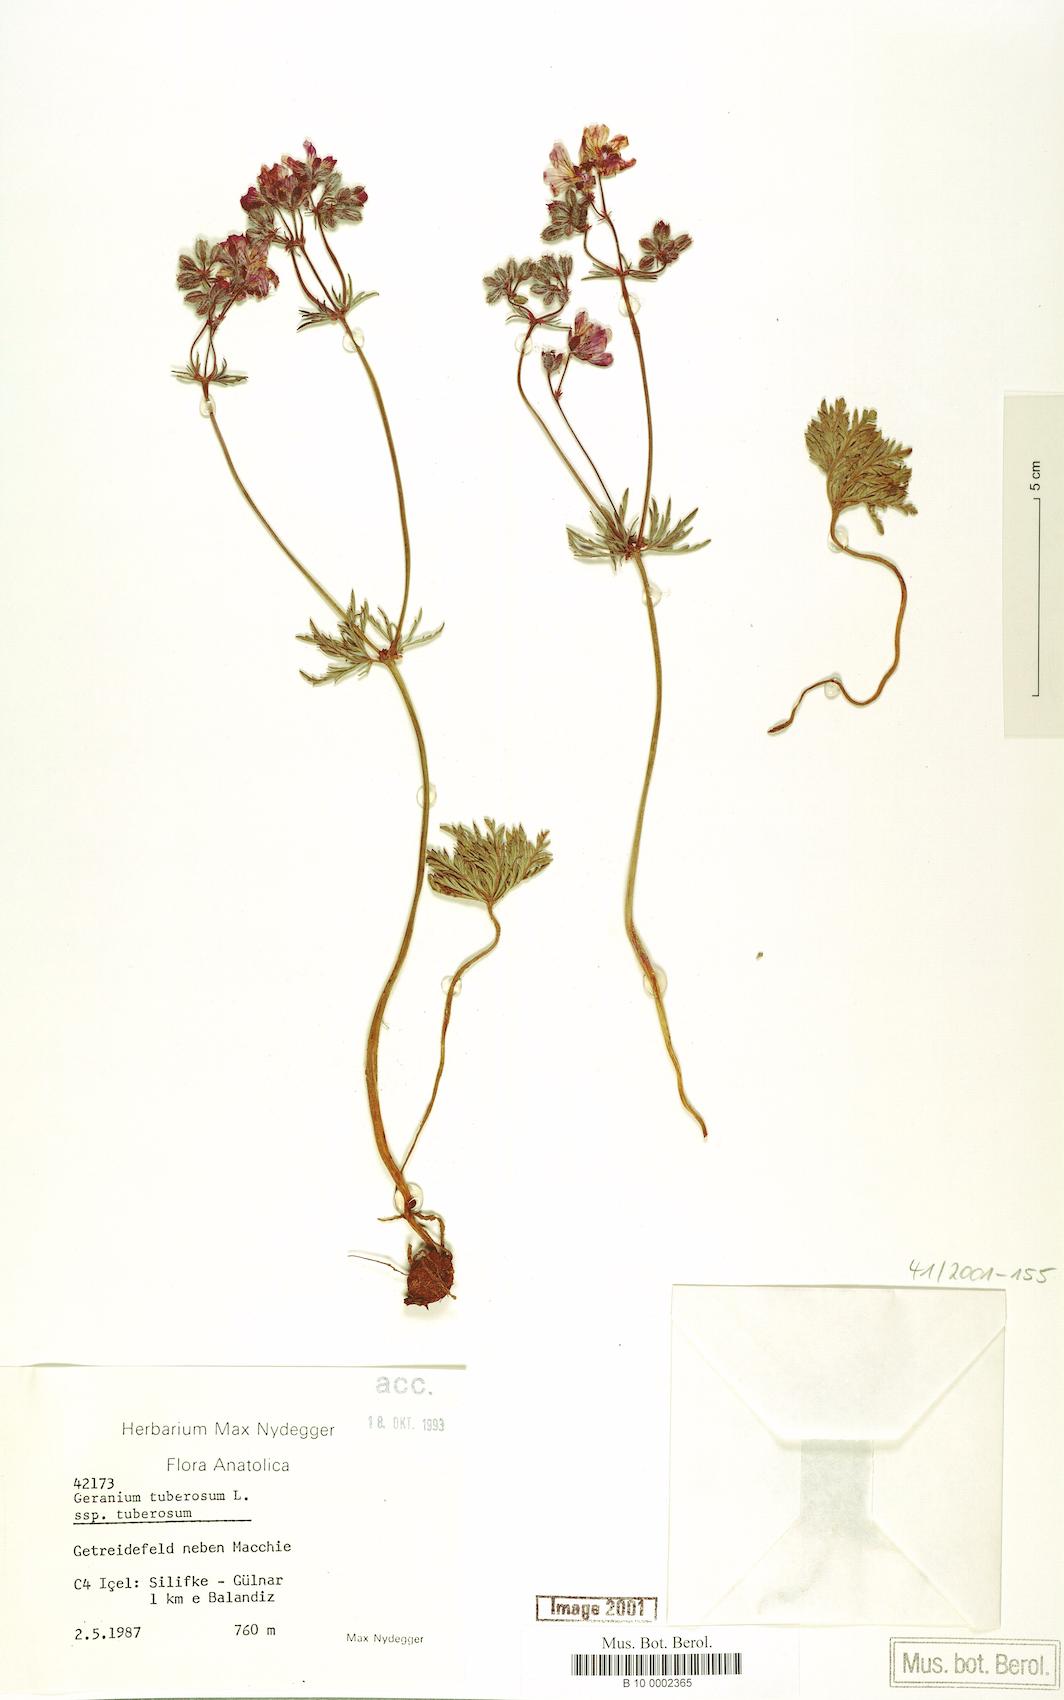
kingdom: Plantae
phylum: Tracheophyta
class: Magnoliopsida
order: Geraniales
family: Geraniaceae
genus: Geranium
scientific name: Geranium tuberosum
